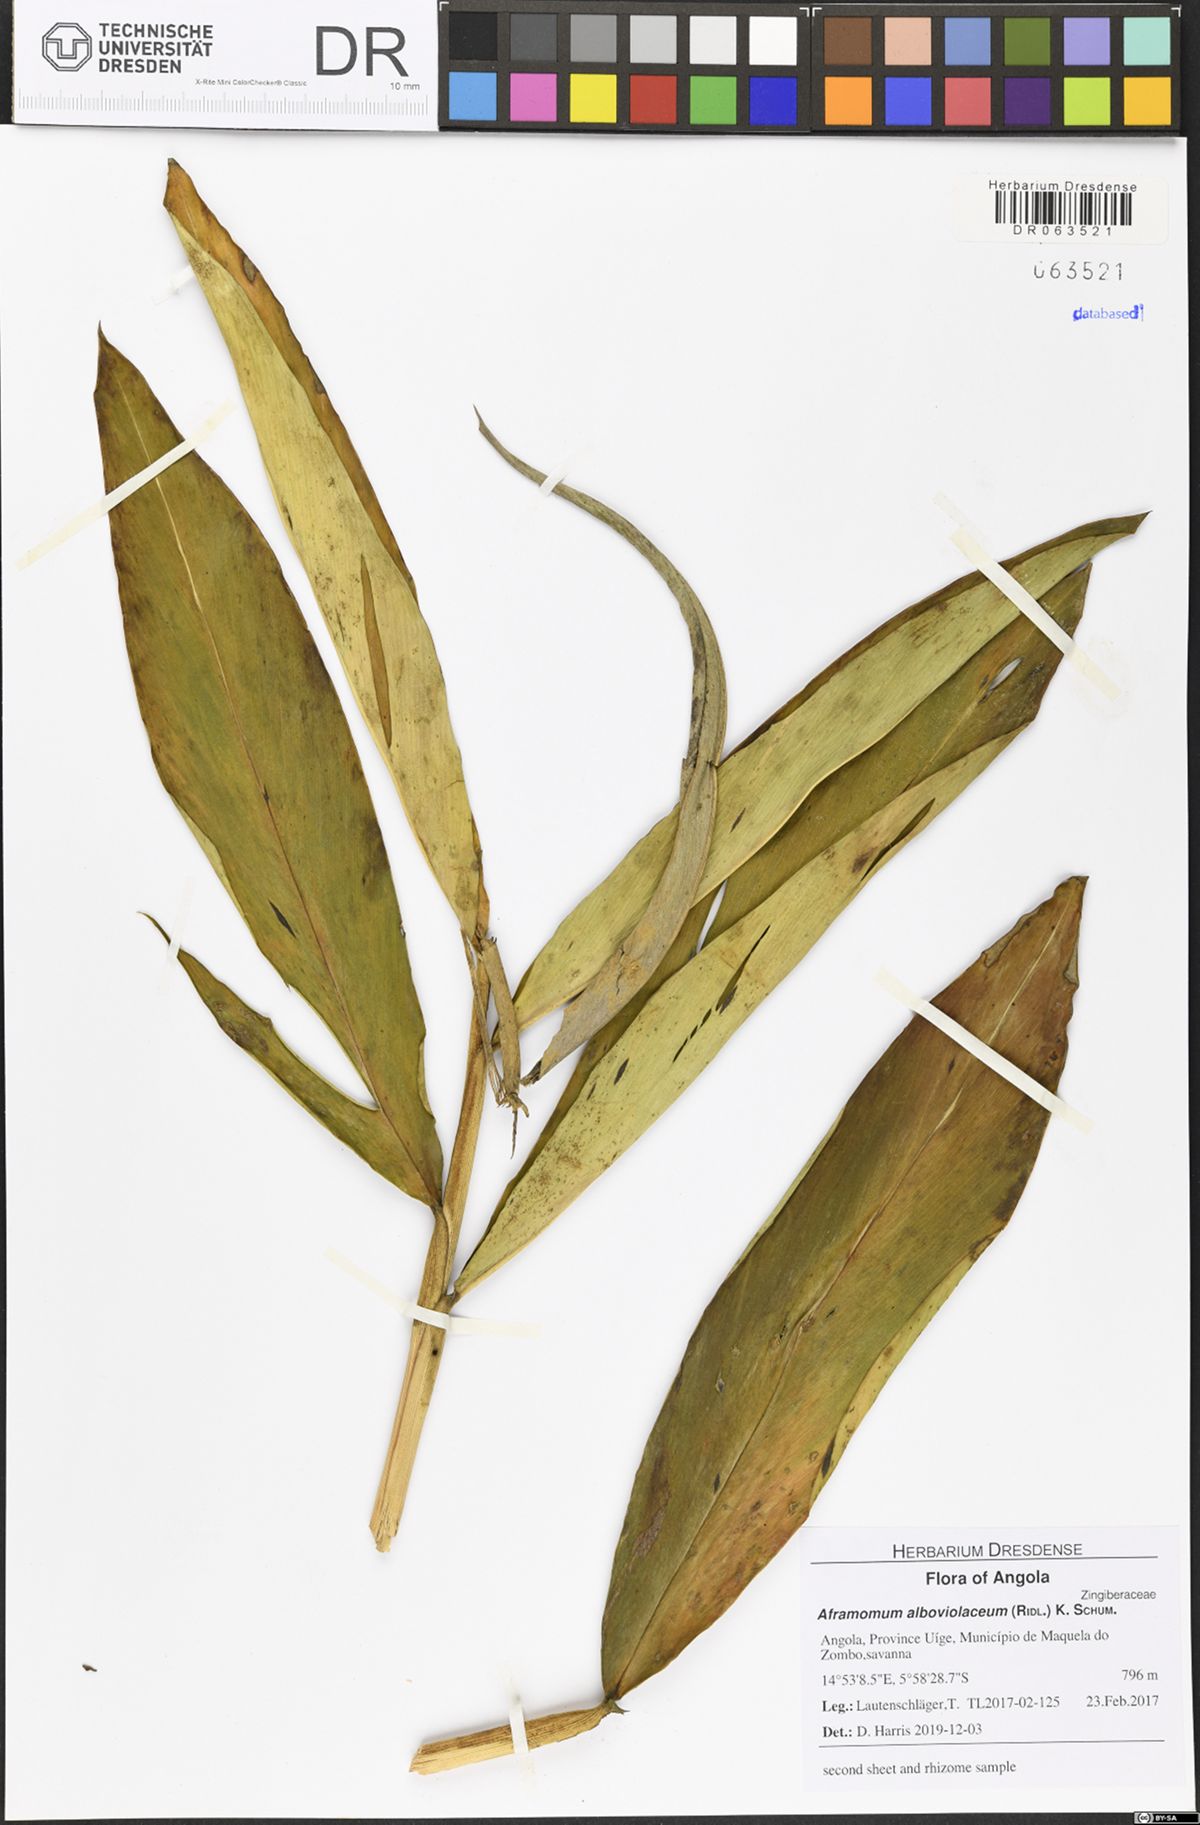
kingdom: Plantae
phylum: Tracheophyta
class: Liliopsida
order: Zingiberales
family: Zingiberaceae
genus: Aframomum
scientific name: Aframomum alboviolaceum
